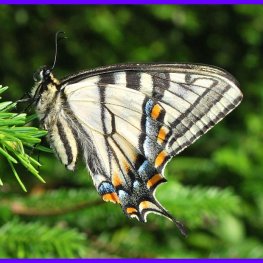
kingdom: Animalia
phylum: Arthropoda
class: Insecta
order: Lepidoptera
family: Papilionidae
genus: Pterourus
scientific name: Pterourus canadensis
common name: Canadian Tiger Swallowtail
